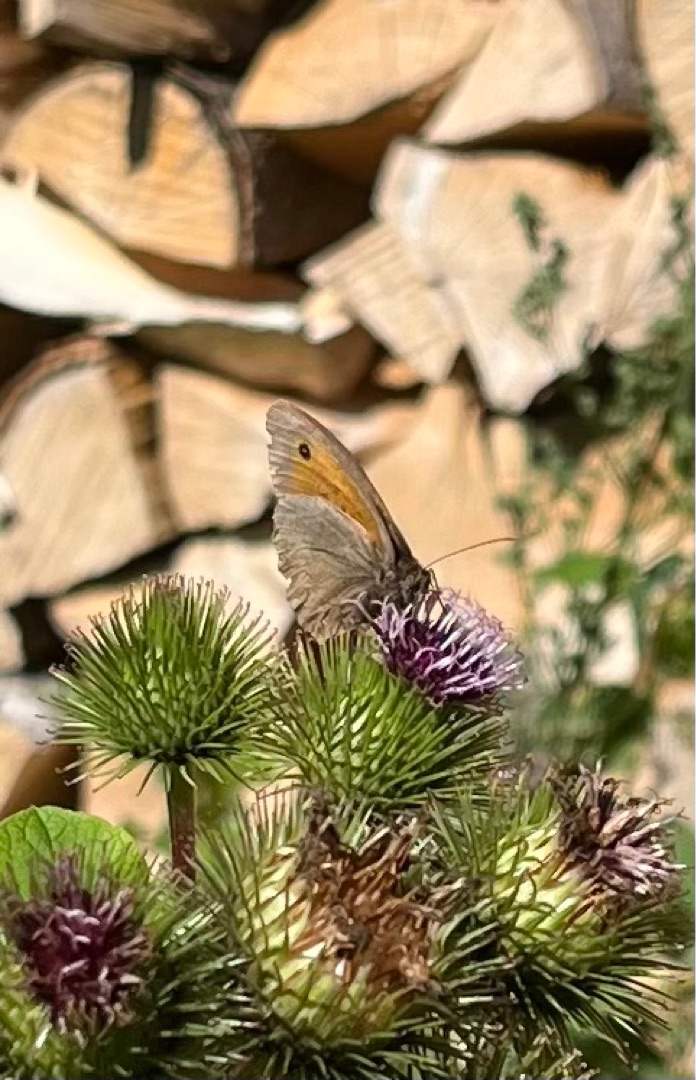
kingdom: Animalia
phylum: Arthropoda
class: Insecta
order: Lepidoptera
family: Nymphalidae
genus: Maniola
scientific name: Maniola jurtina
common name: Græsrandøje
